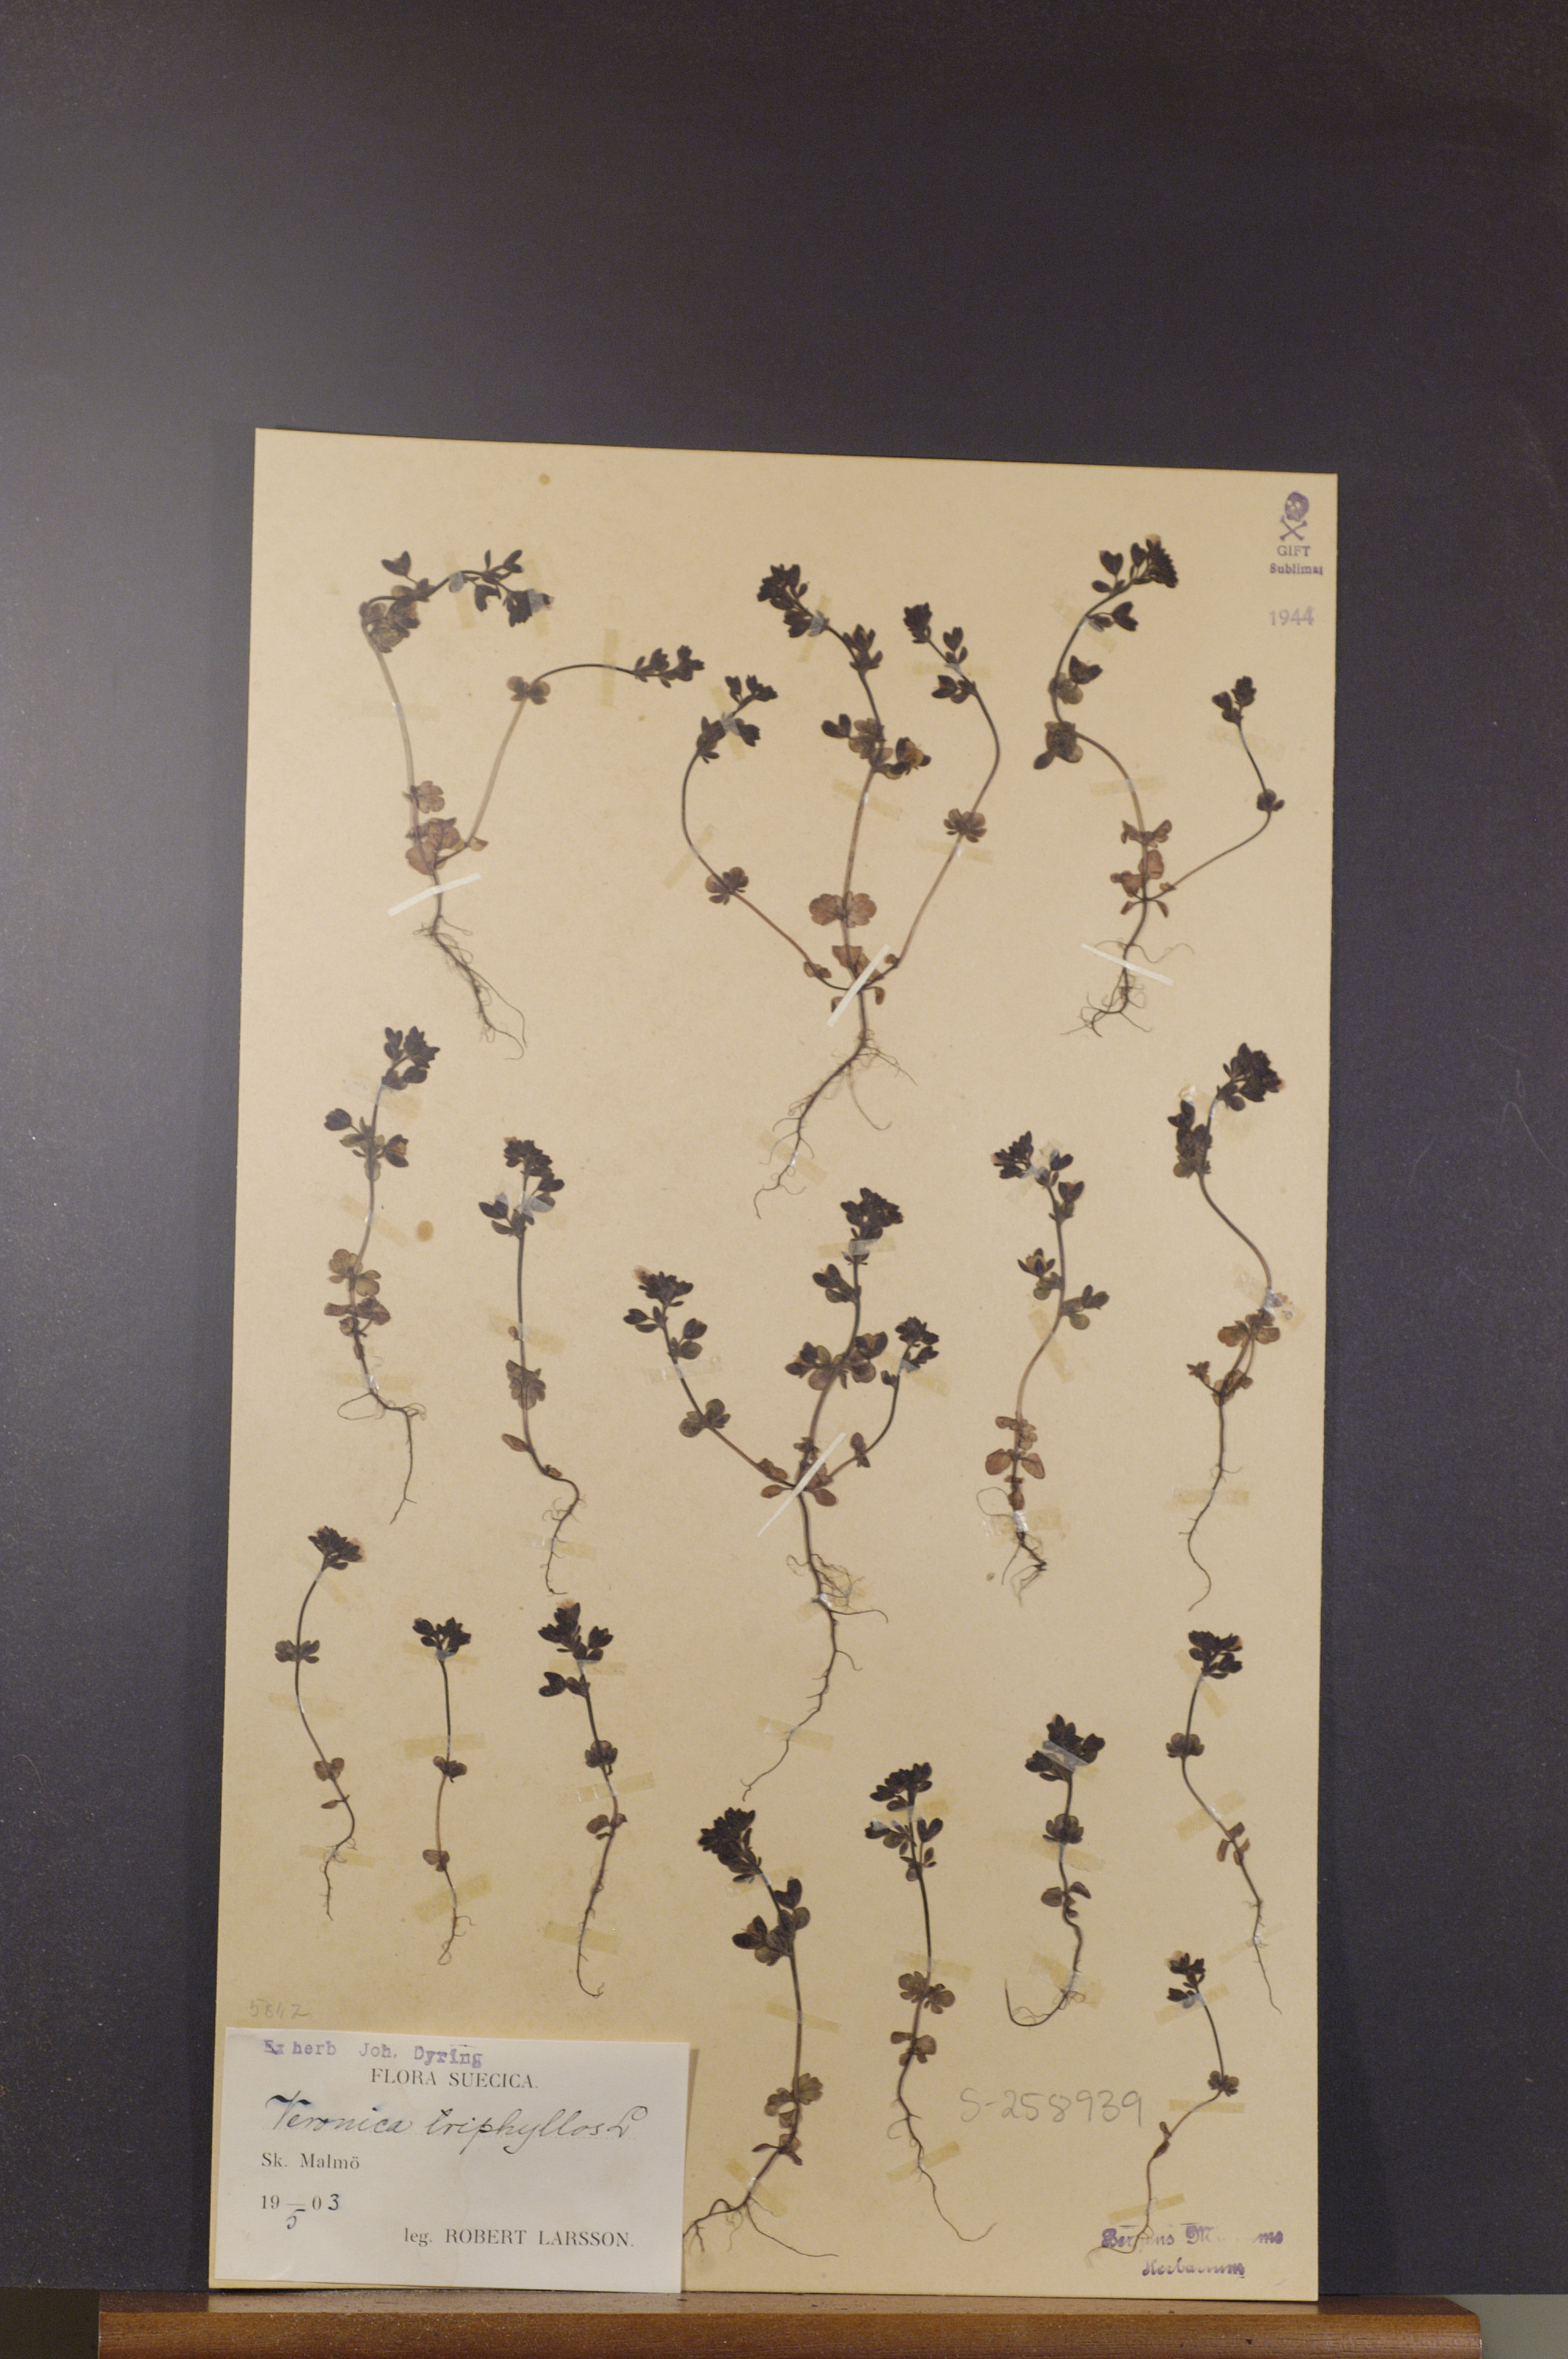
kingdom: Plantae
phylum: Tracheophyta
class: Magnoliopsida
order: Lamiales
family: Plantaginaceae
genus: Veronica
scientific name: Veronica triphyllos
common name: Fingered speedwell
